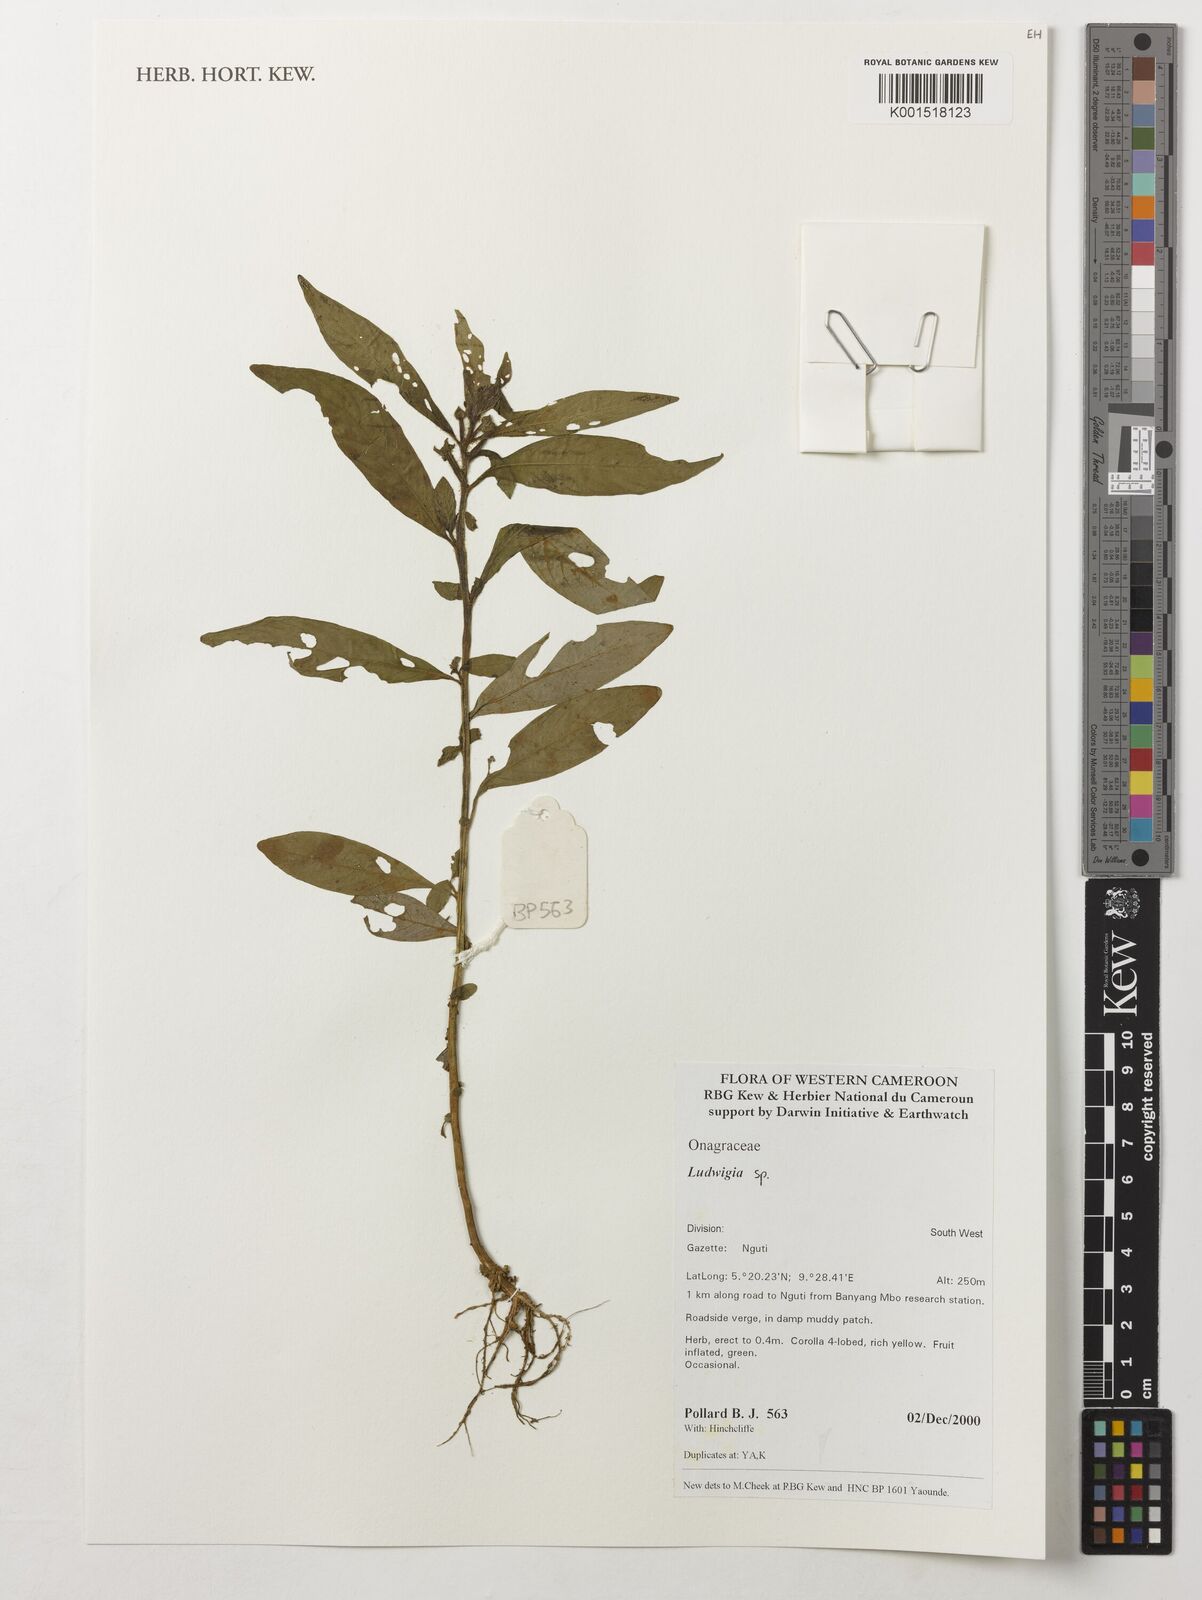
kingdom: Plantae
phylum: Tracheophyta
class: Magnoliopsida
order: Myrtales
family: Onagraceae
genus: Ludwigia
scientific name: Ludwigia
